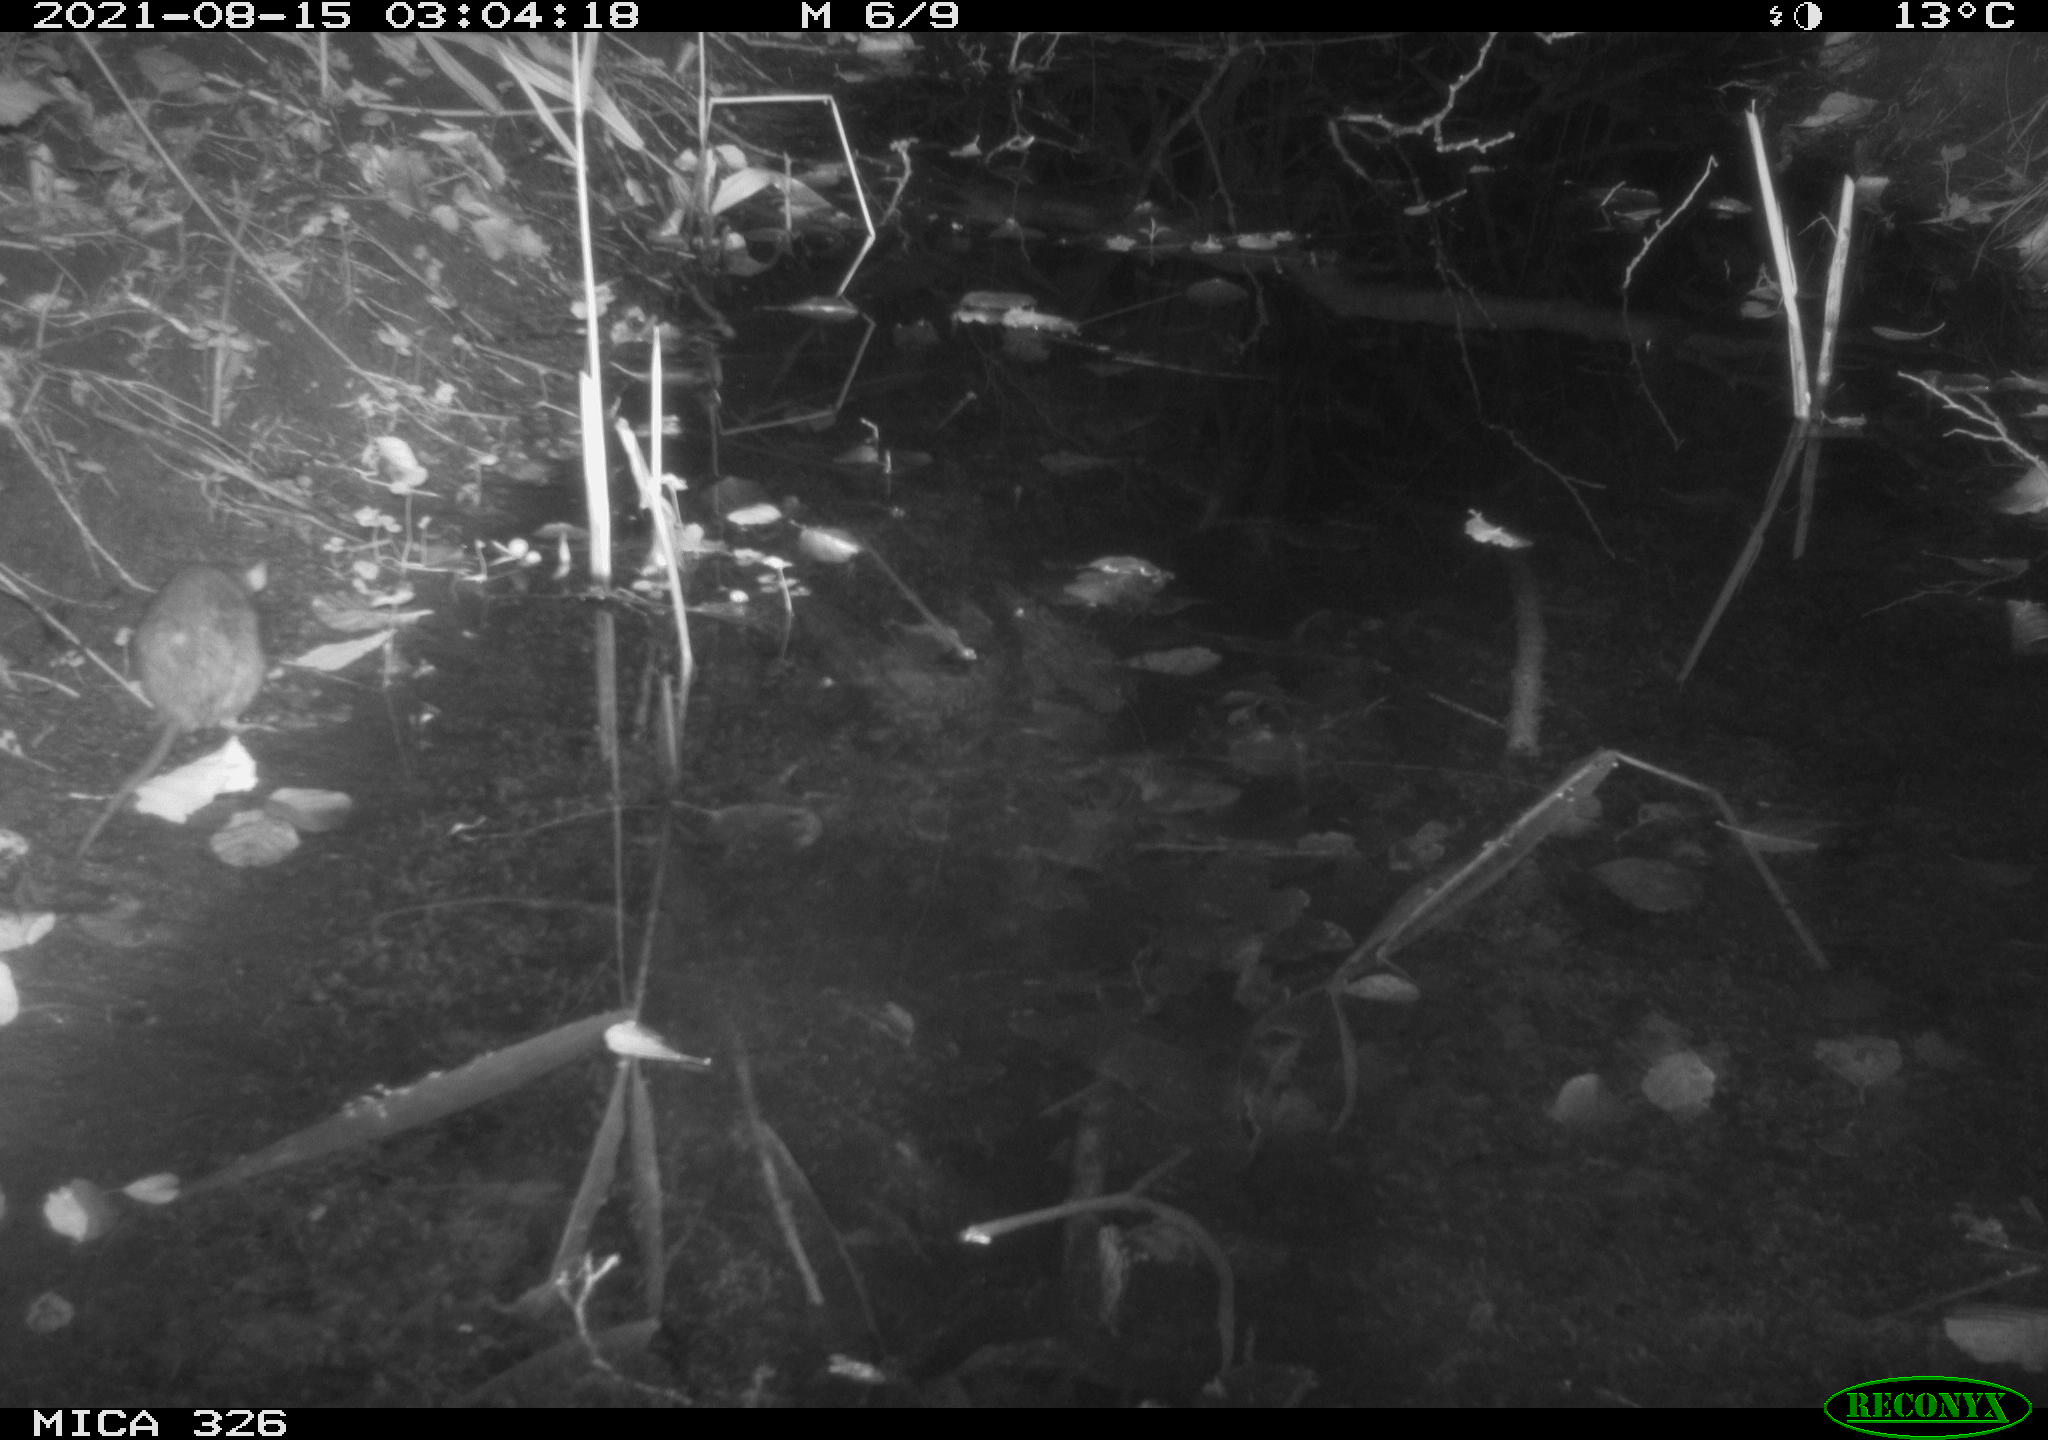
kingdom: Animalia
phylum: Chordata
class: Mammalia
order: Rodentia
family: Muridae
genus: Rattus
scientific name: Rattus norvegicus
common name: Brown rat
